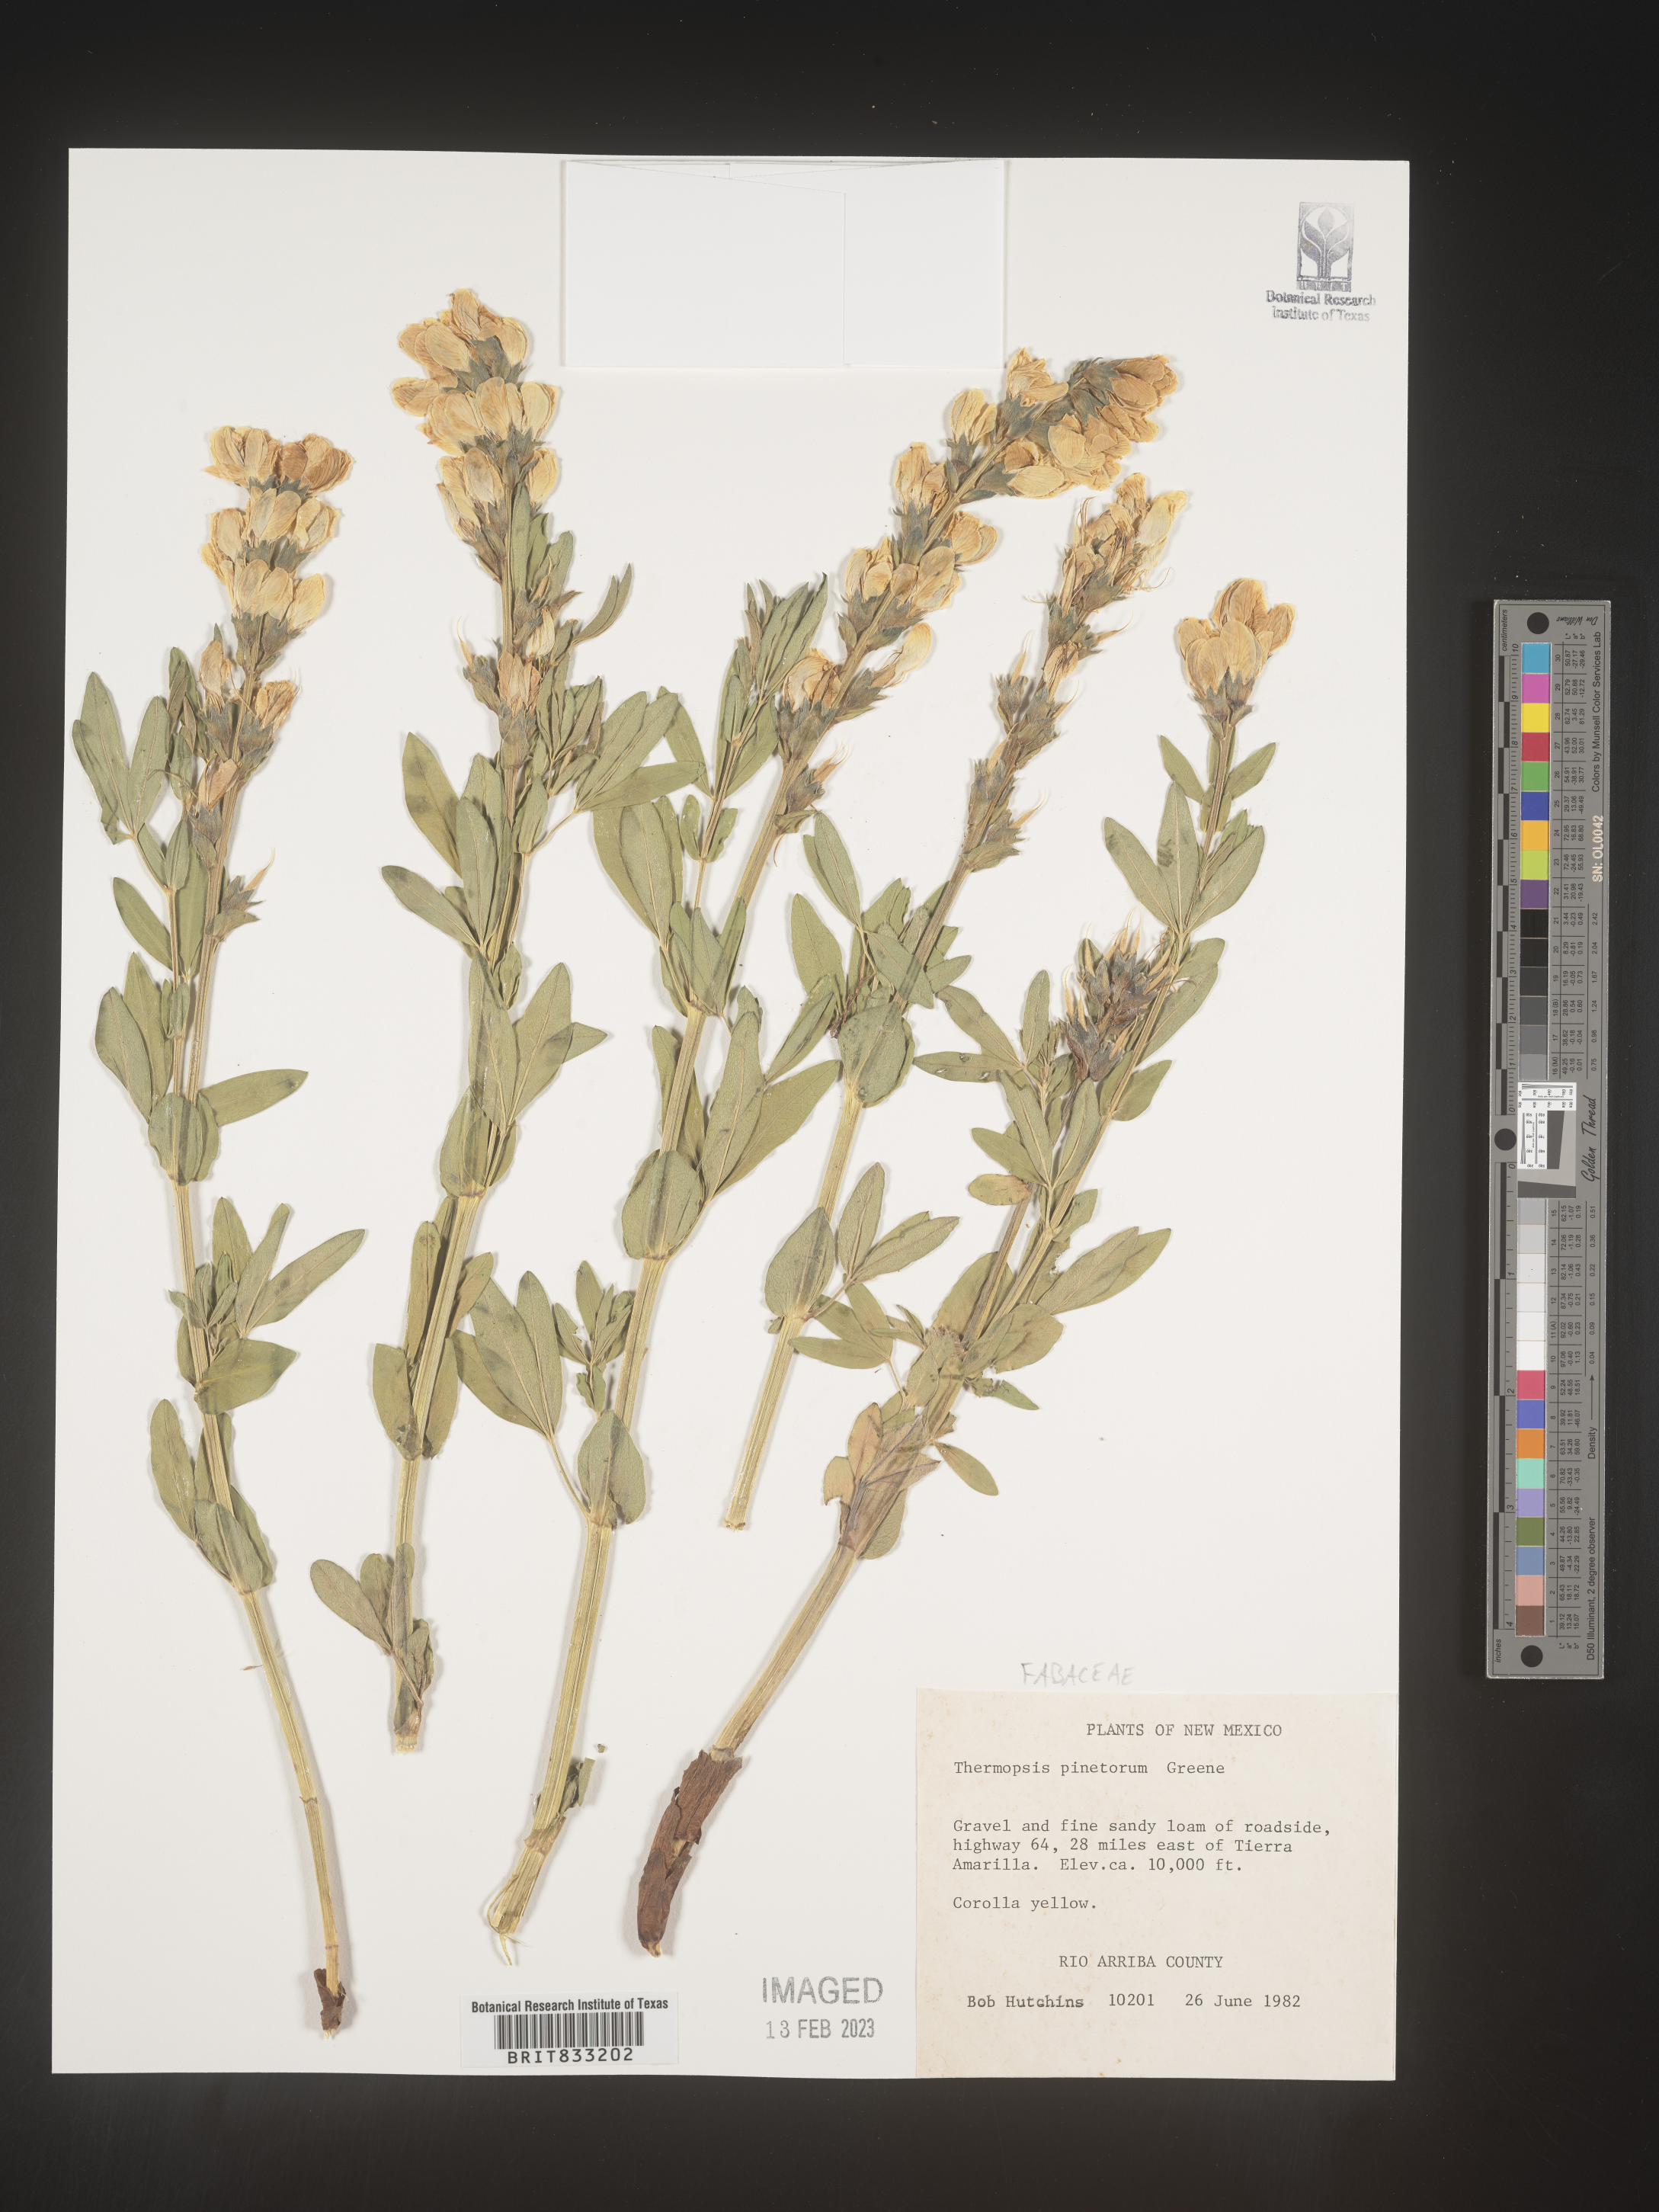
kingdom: Plantae
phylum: Tracheophyta
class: Magnoliopsida
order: Fabales
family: Fabaceae
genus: Thermopsis
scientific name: Thermopsis rhombifolia
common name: Circle-pod-pea
